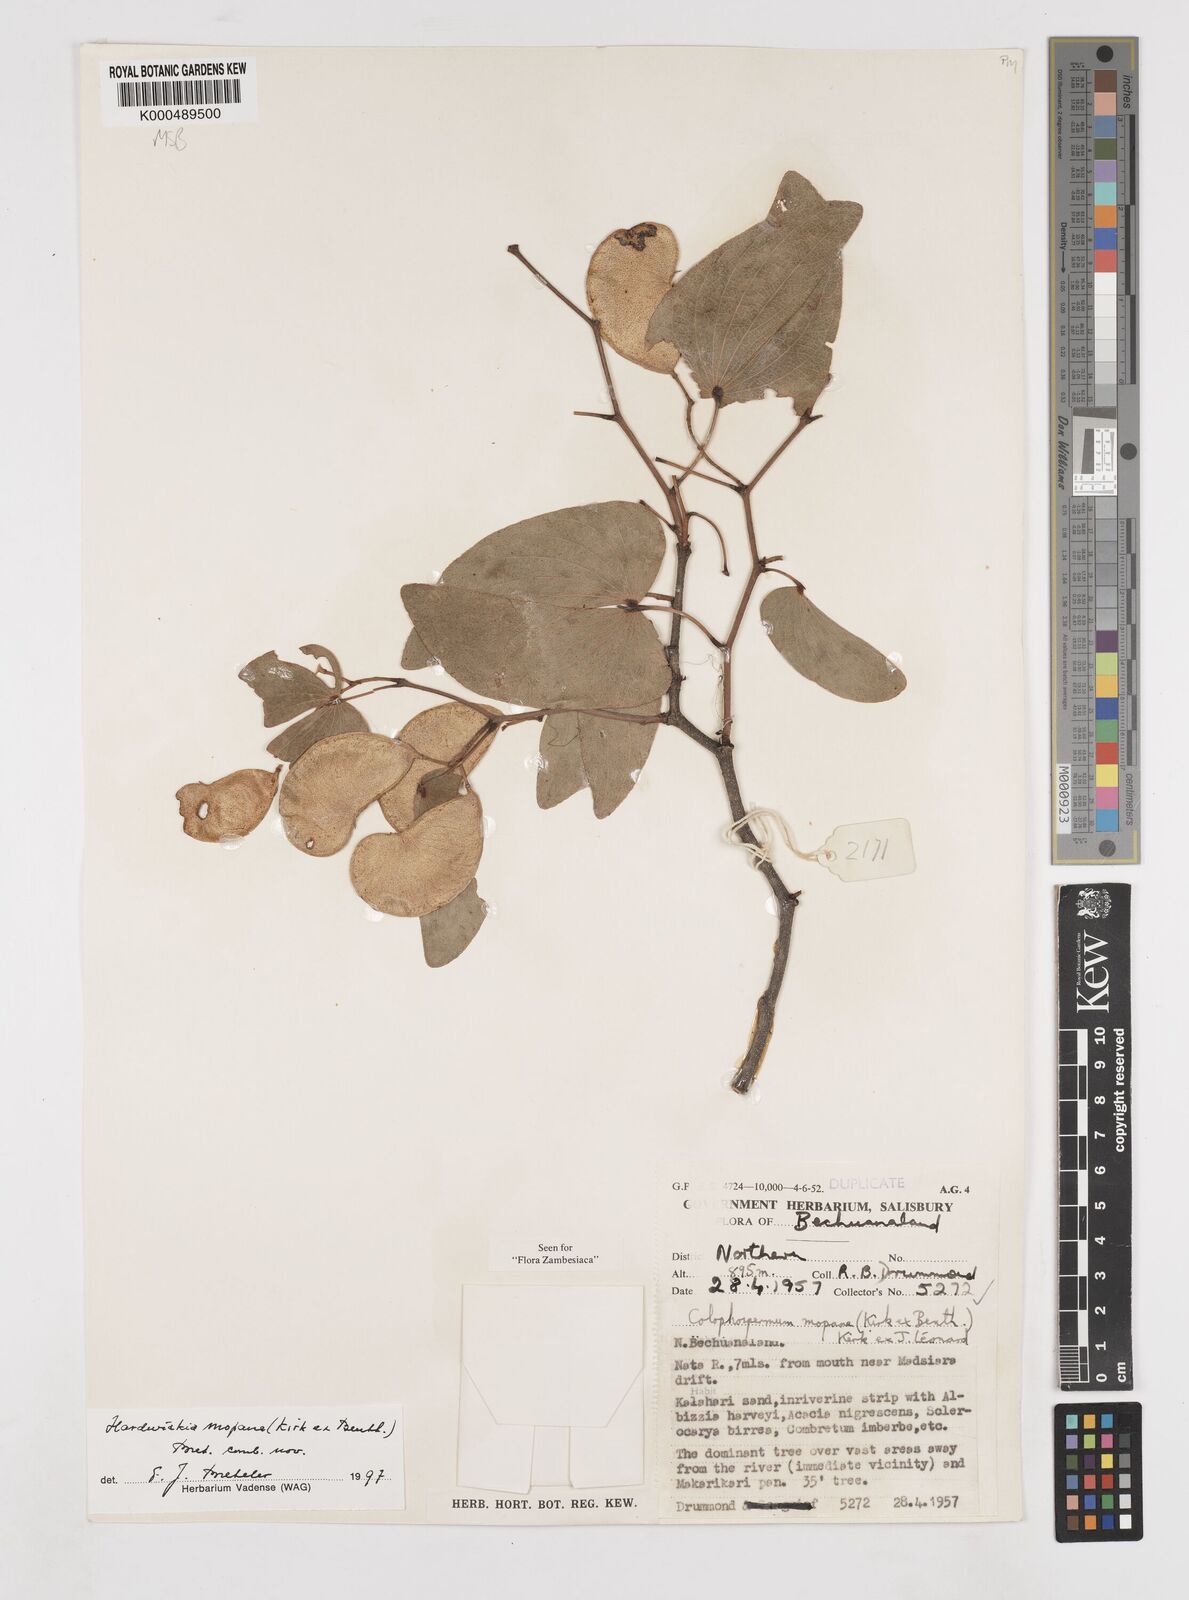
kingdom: Plantae
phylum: Tracheophyta
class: Magnoliopsida
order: Fabales
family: Fabaceae
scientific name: Fabaceae
